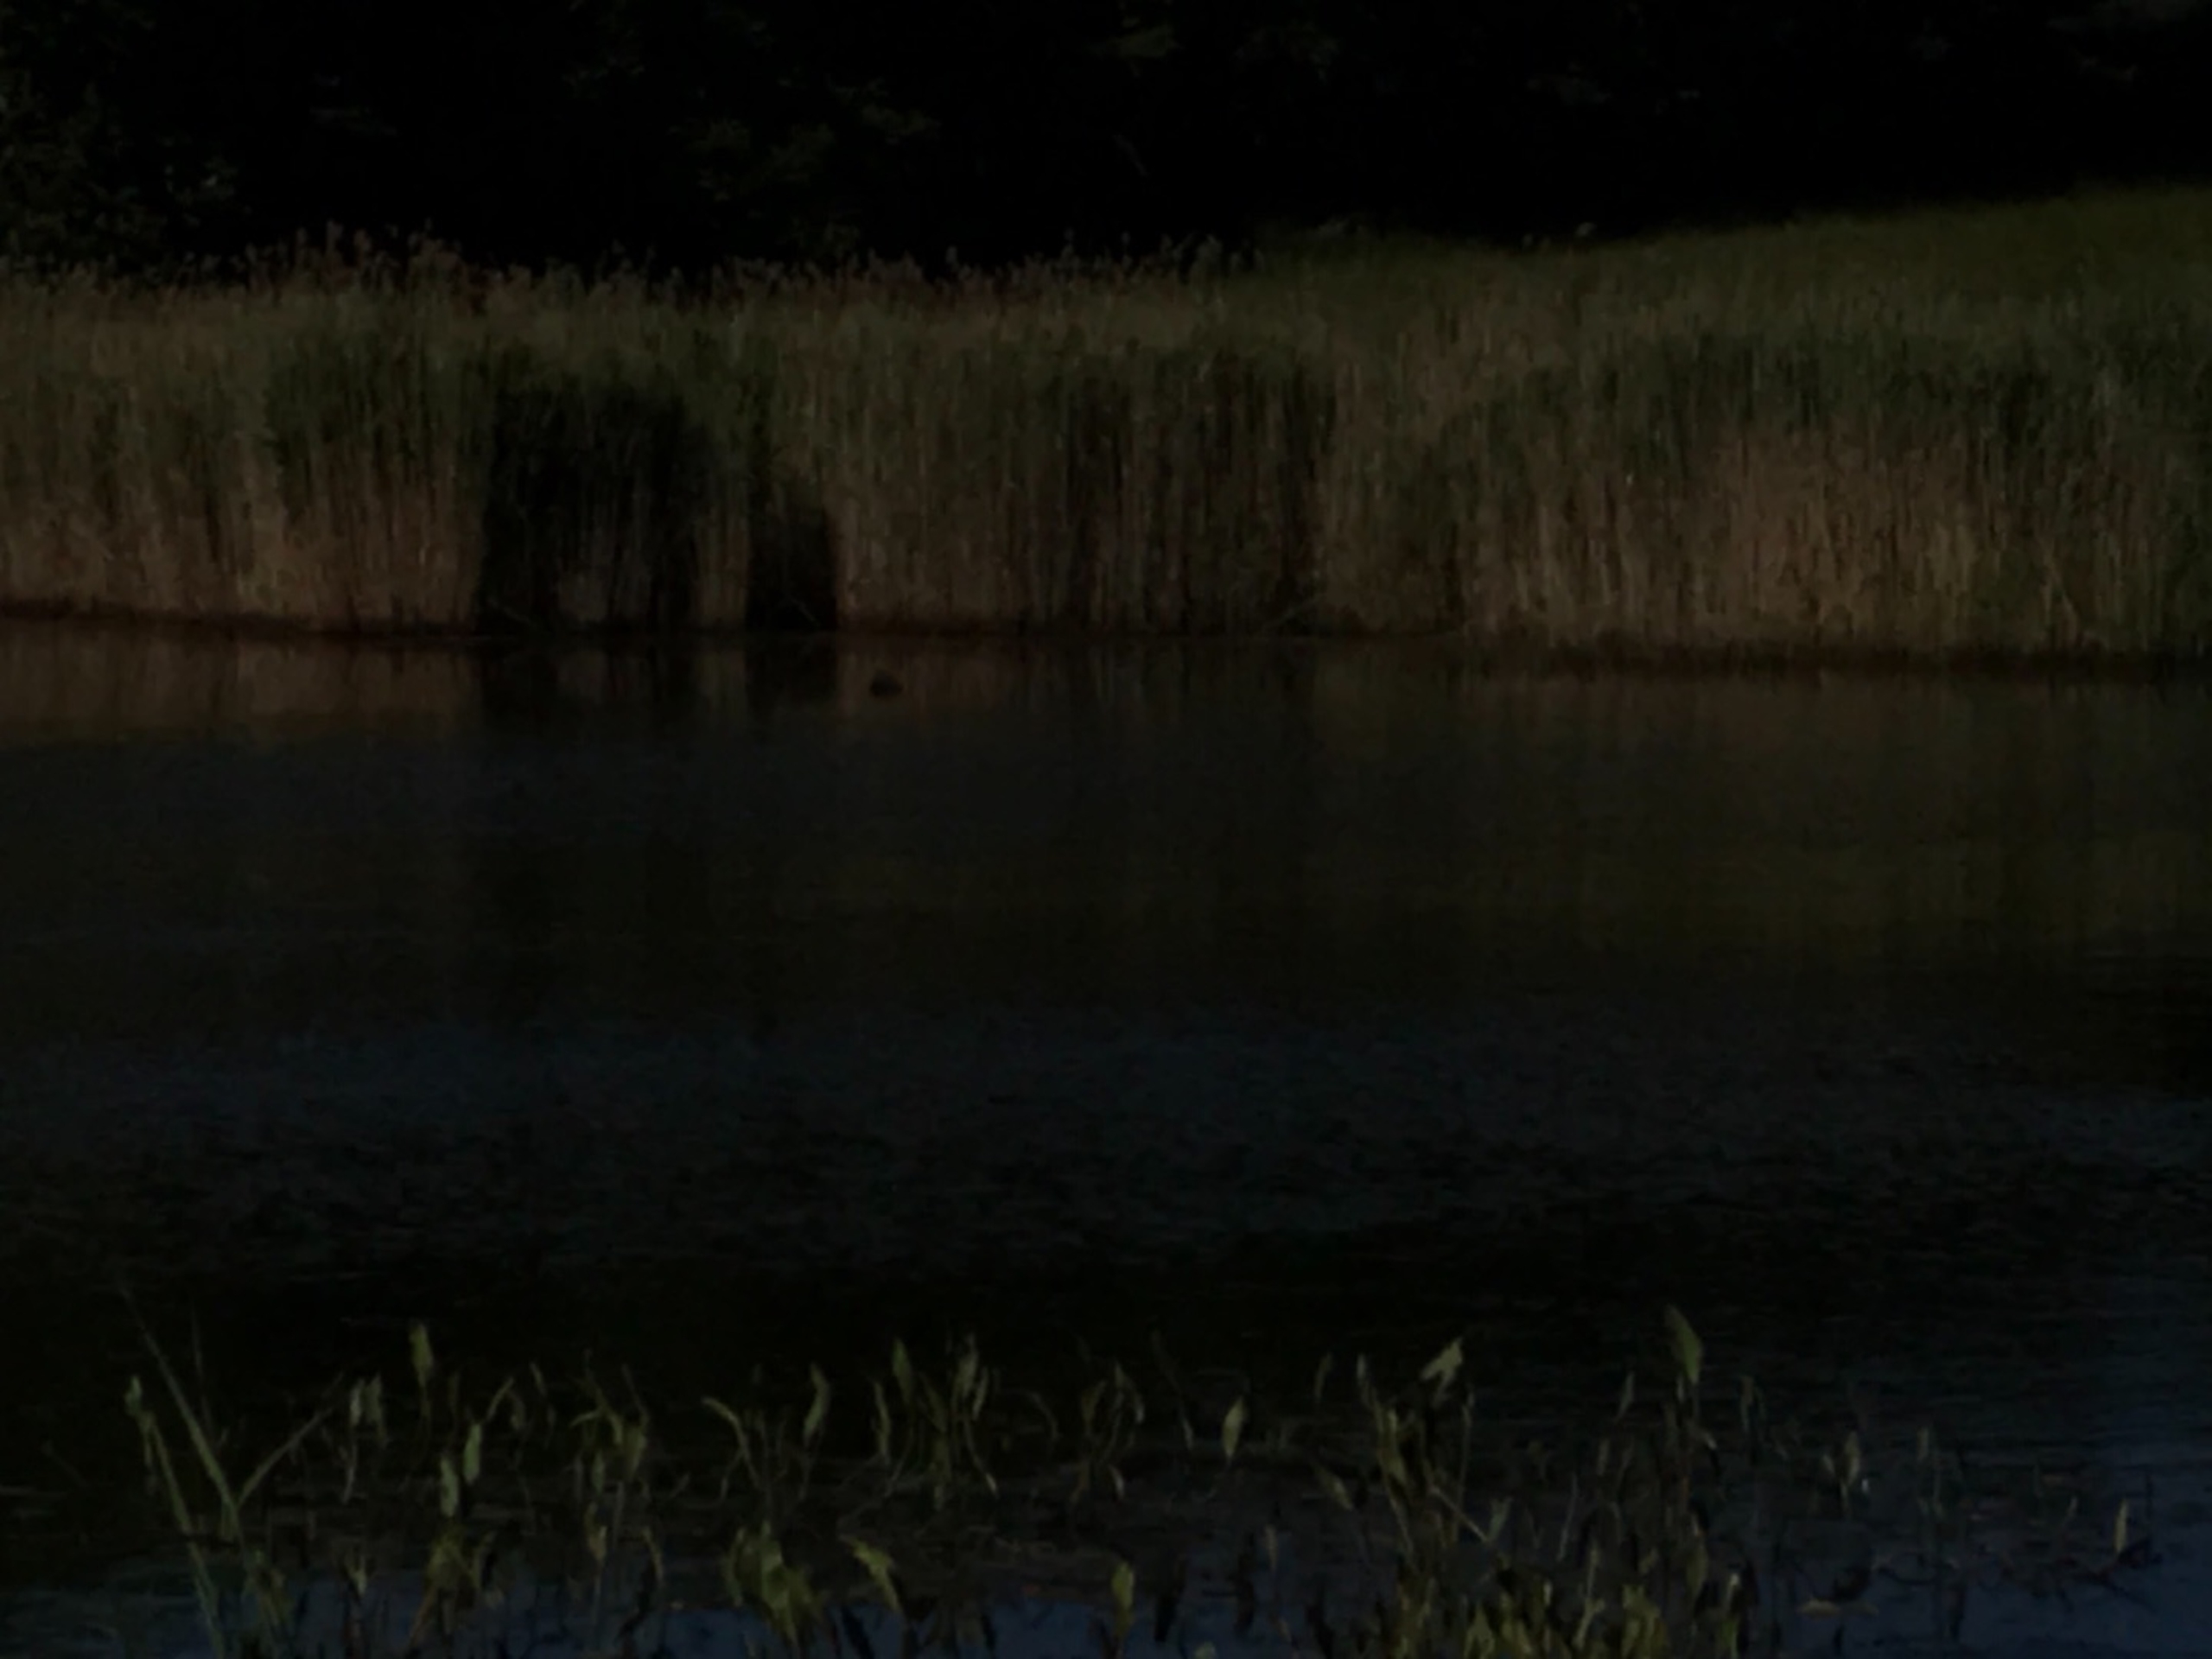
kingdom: Animalia
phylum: Chordata
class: Aves
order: Podicipediformes
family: Podicipedidae
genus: Podiceps
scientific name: Podiceps grisegena
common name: Gråstrubet lappedykker
